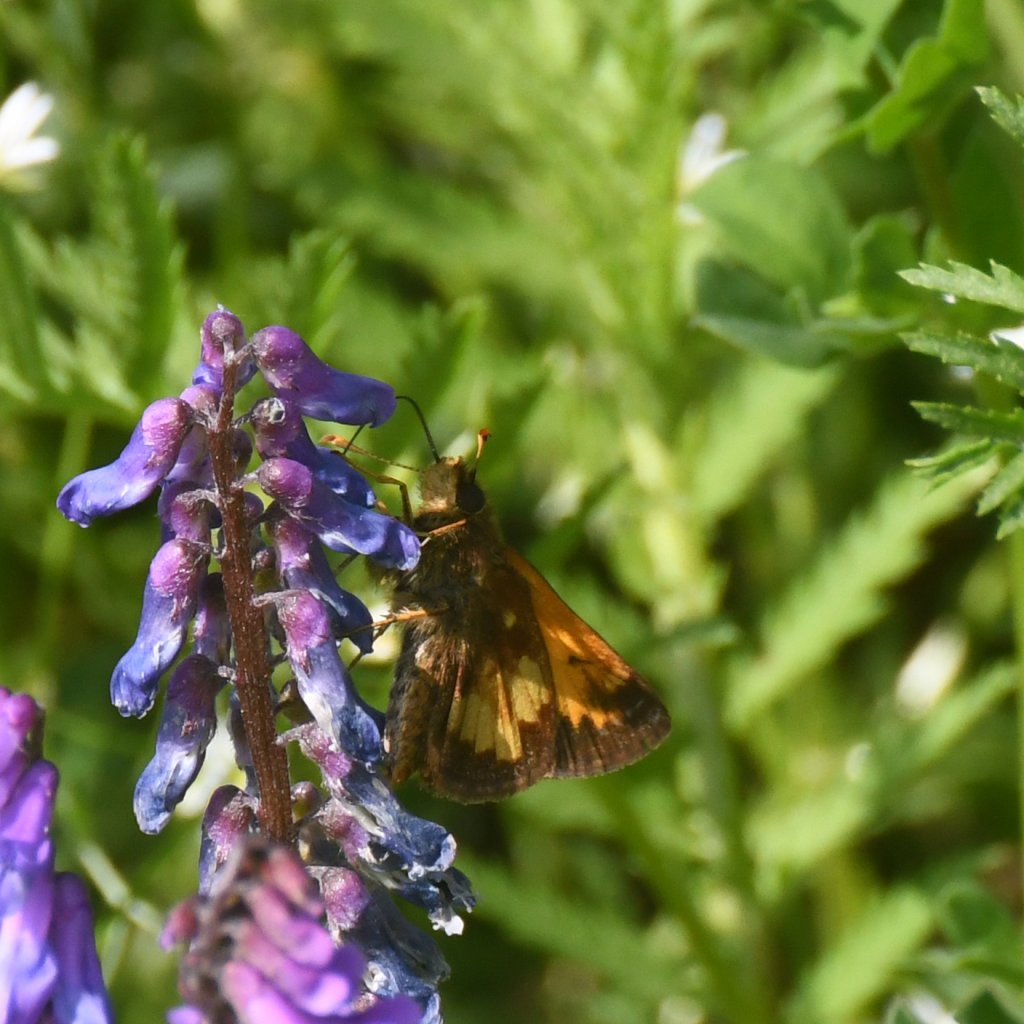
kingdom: Animalia
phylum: Arthropoda
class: Insecta
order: Lepidoptera
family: Hesperiidae
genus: Lon
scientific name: Lon hobomok
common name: Hobomok Skipper
